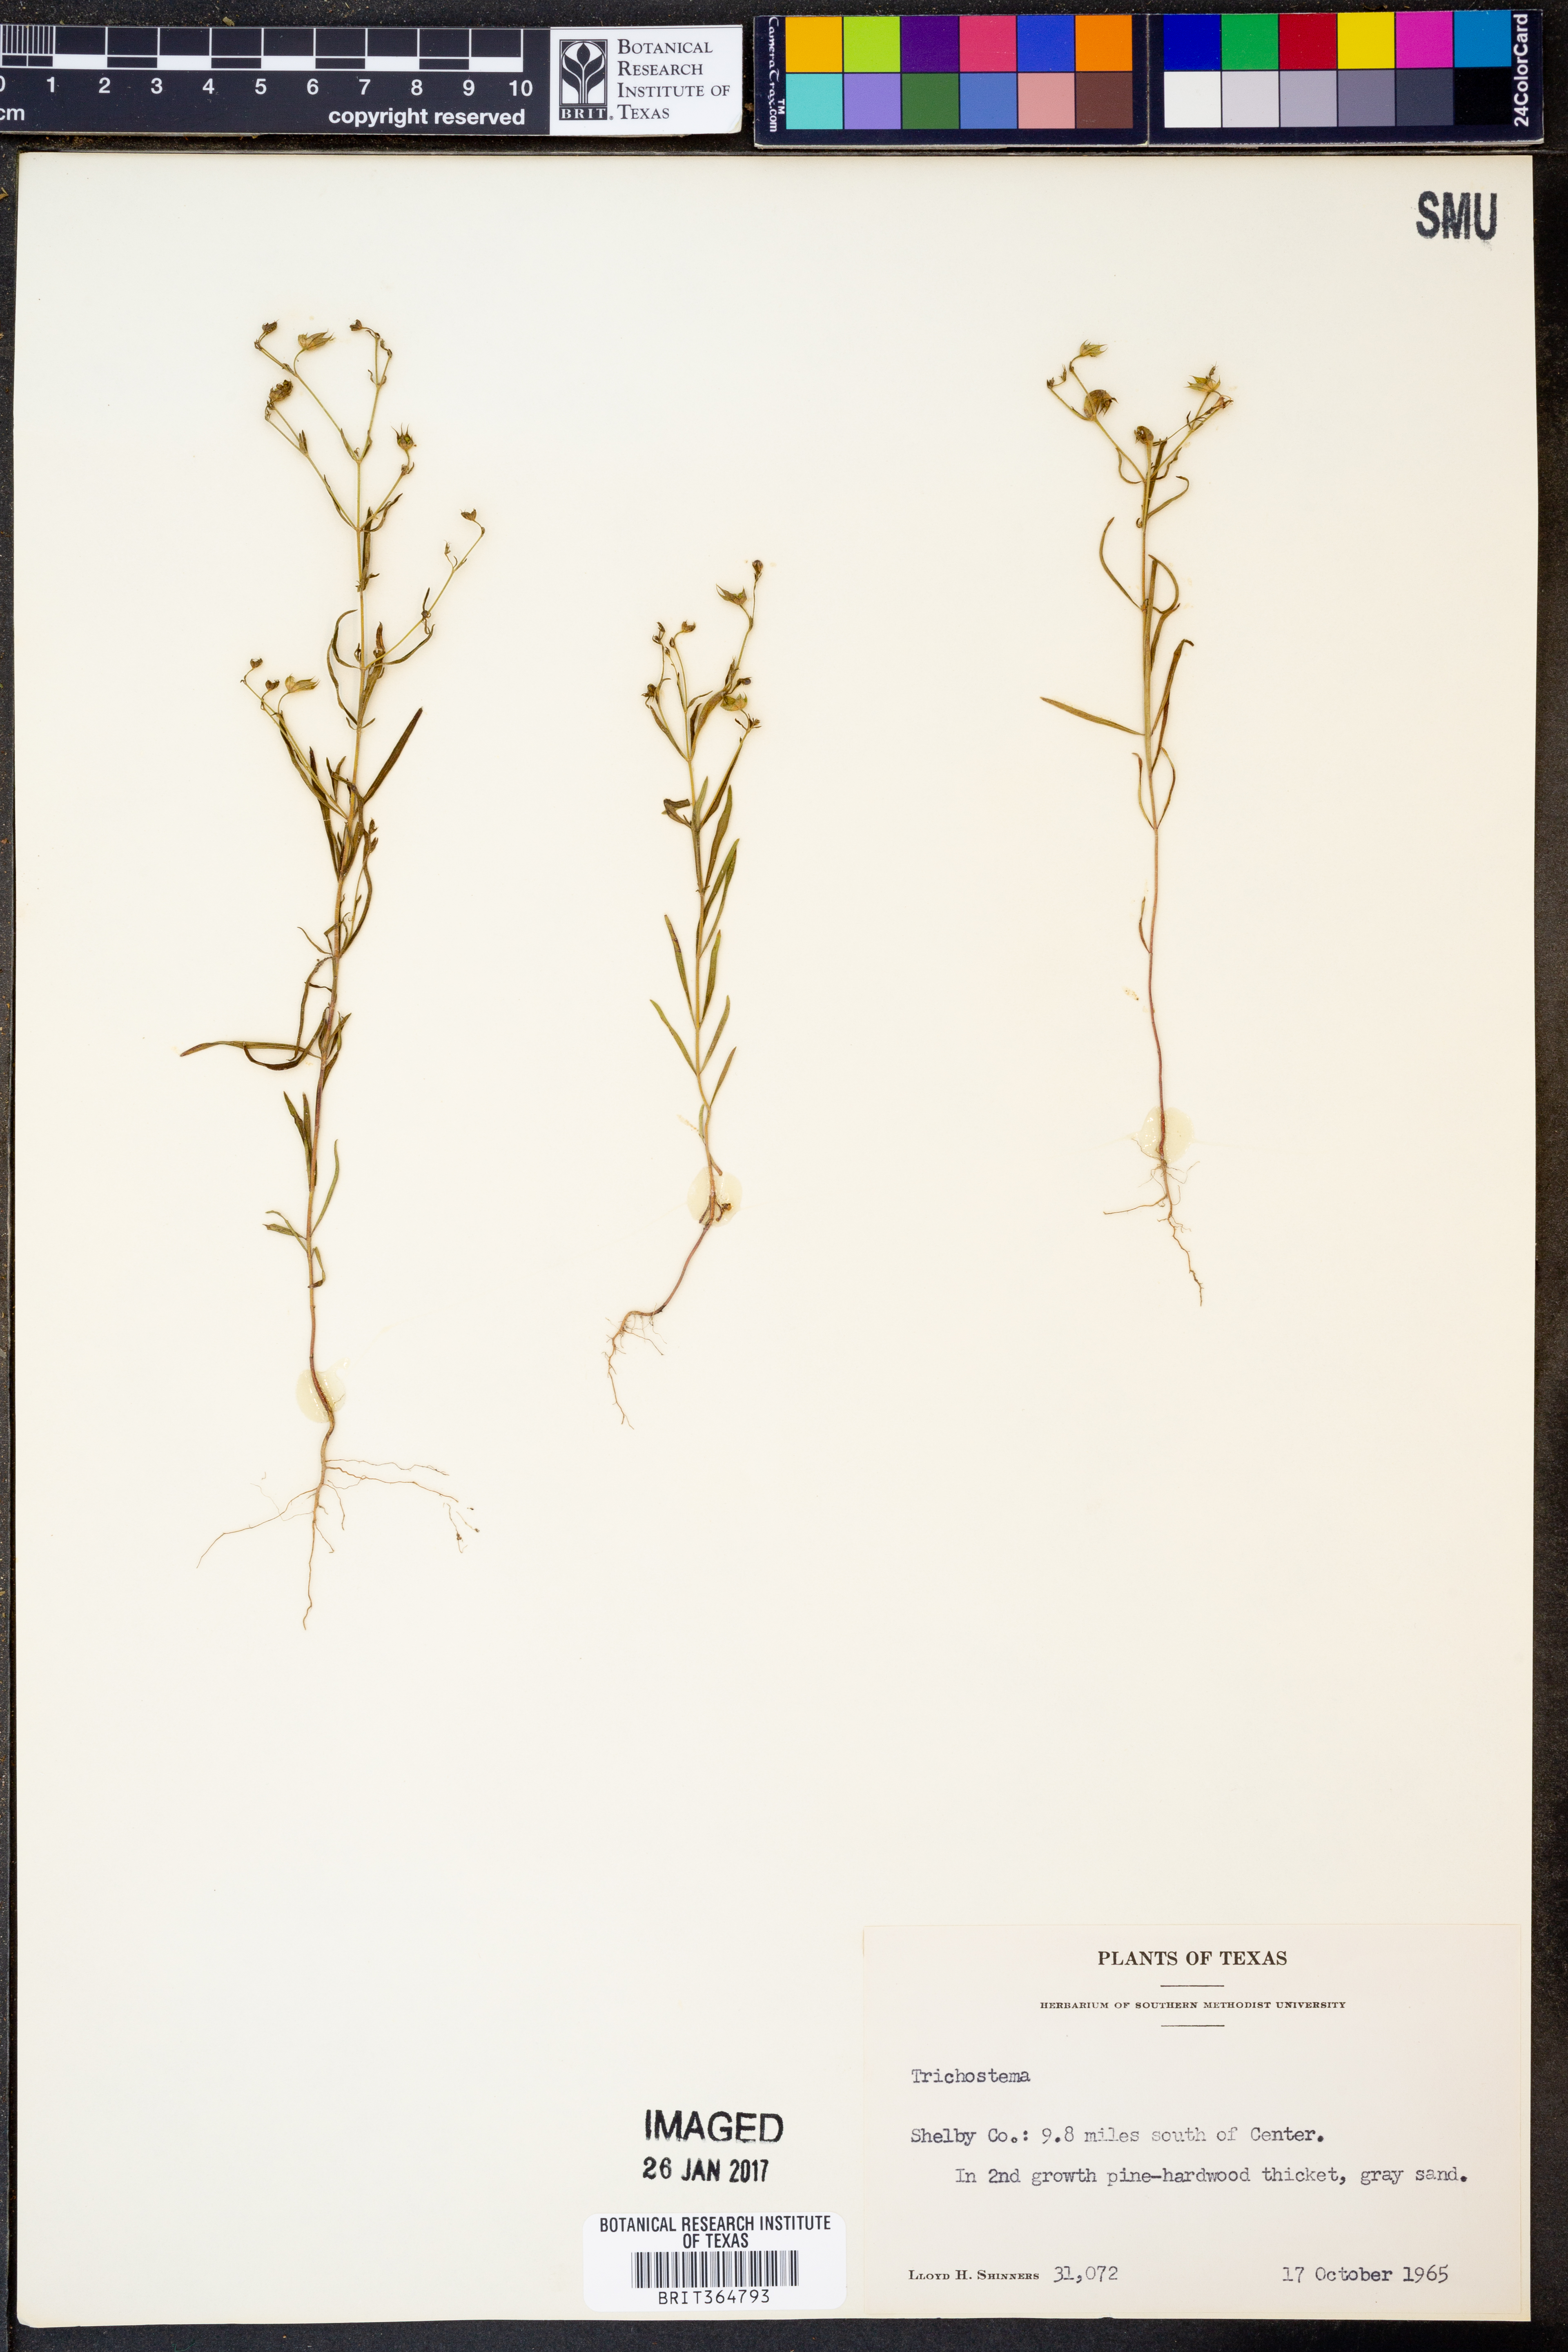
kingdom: Plantae
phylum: Tracheophyta
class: Magnoliopsida
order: Lamiales
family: Lamiaceae
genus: Trichostema
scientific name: Trichostema
